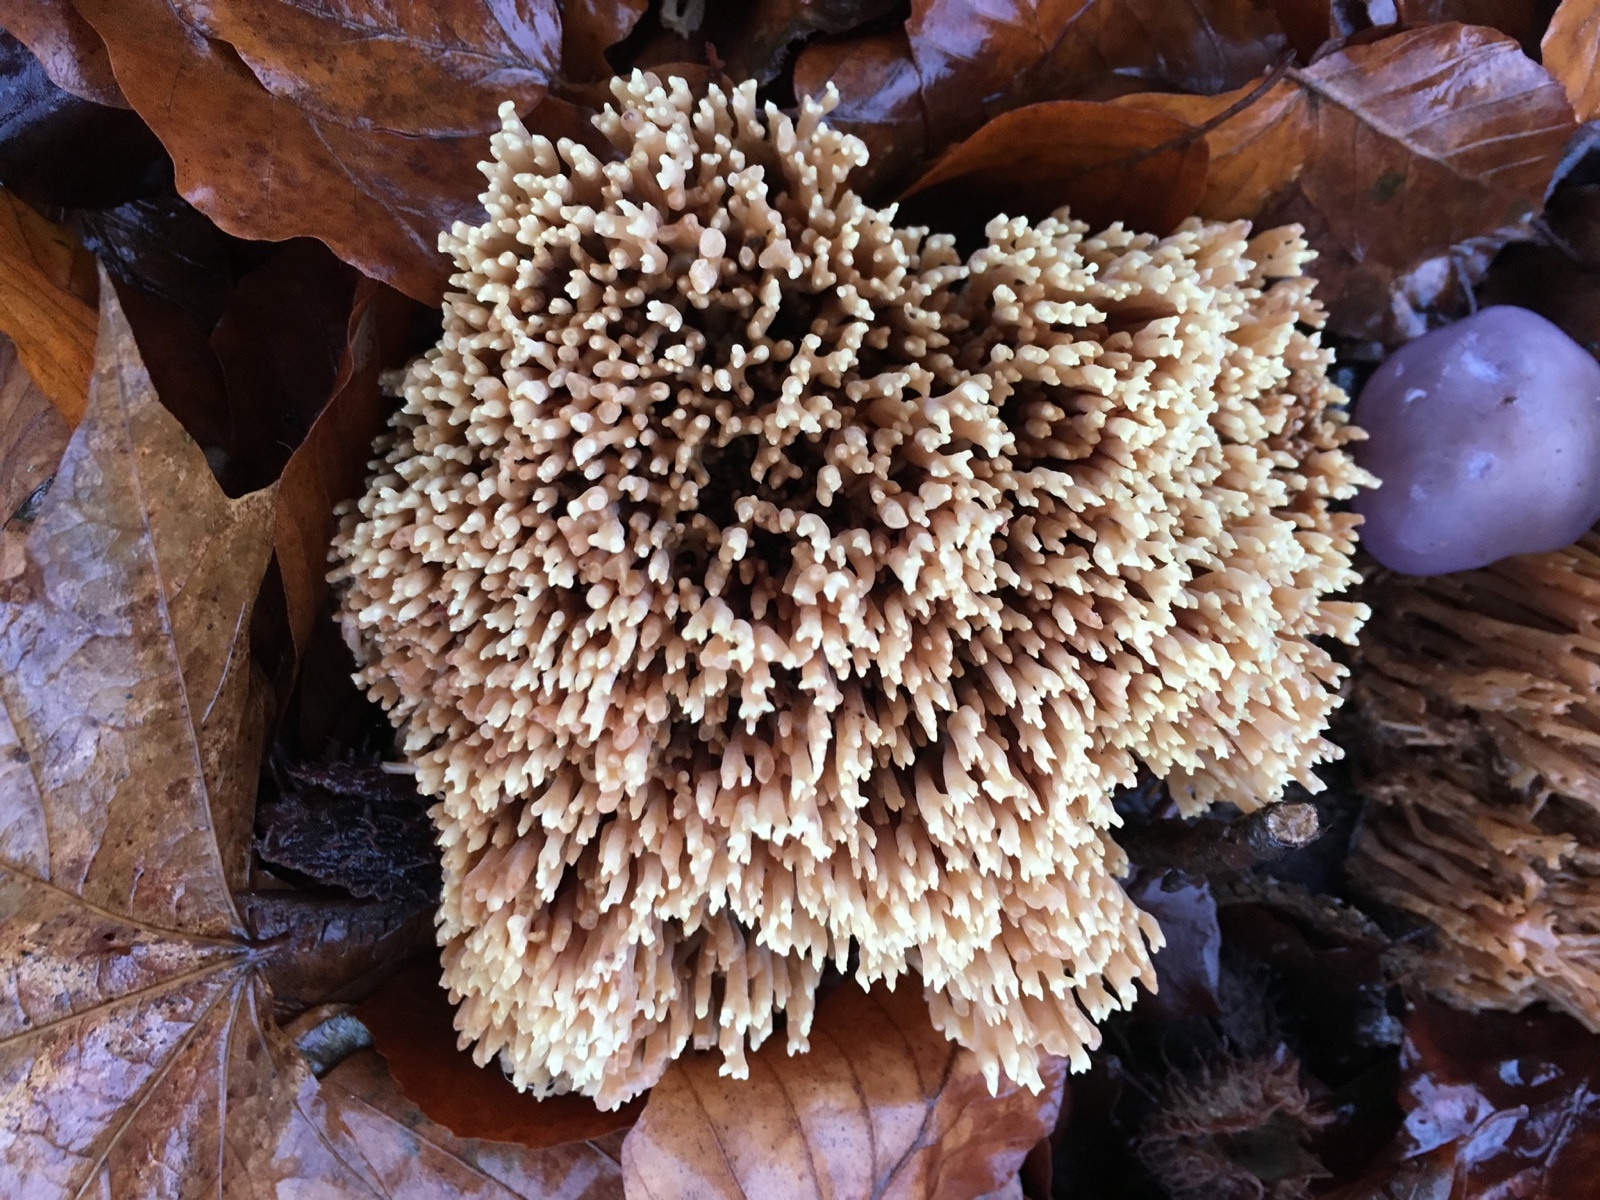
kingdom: Fungi
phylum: Basidiomycota
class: Agaricomycetes
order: Gomphales
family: Gomphaceae
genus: Ramaria
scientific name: Ramaria stricta
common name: rank koralsvamp
